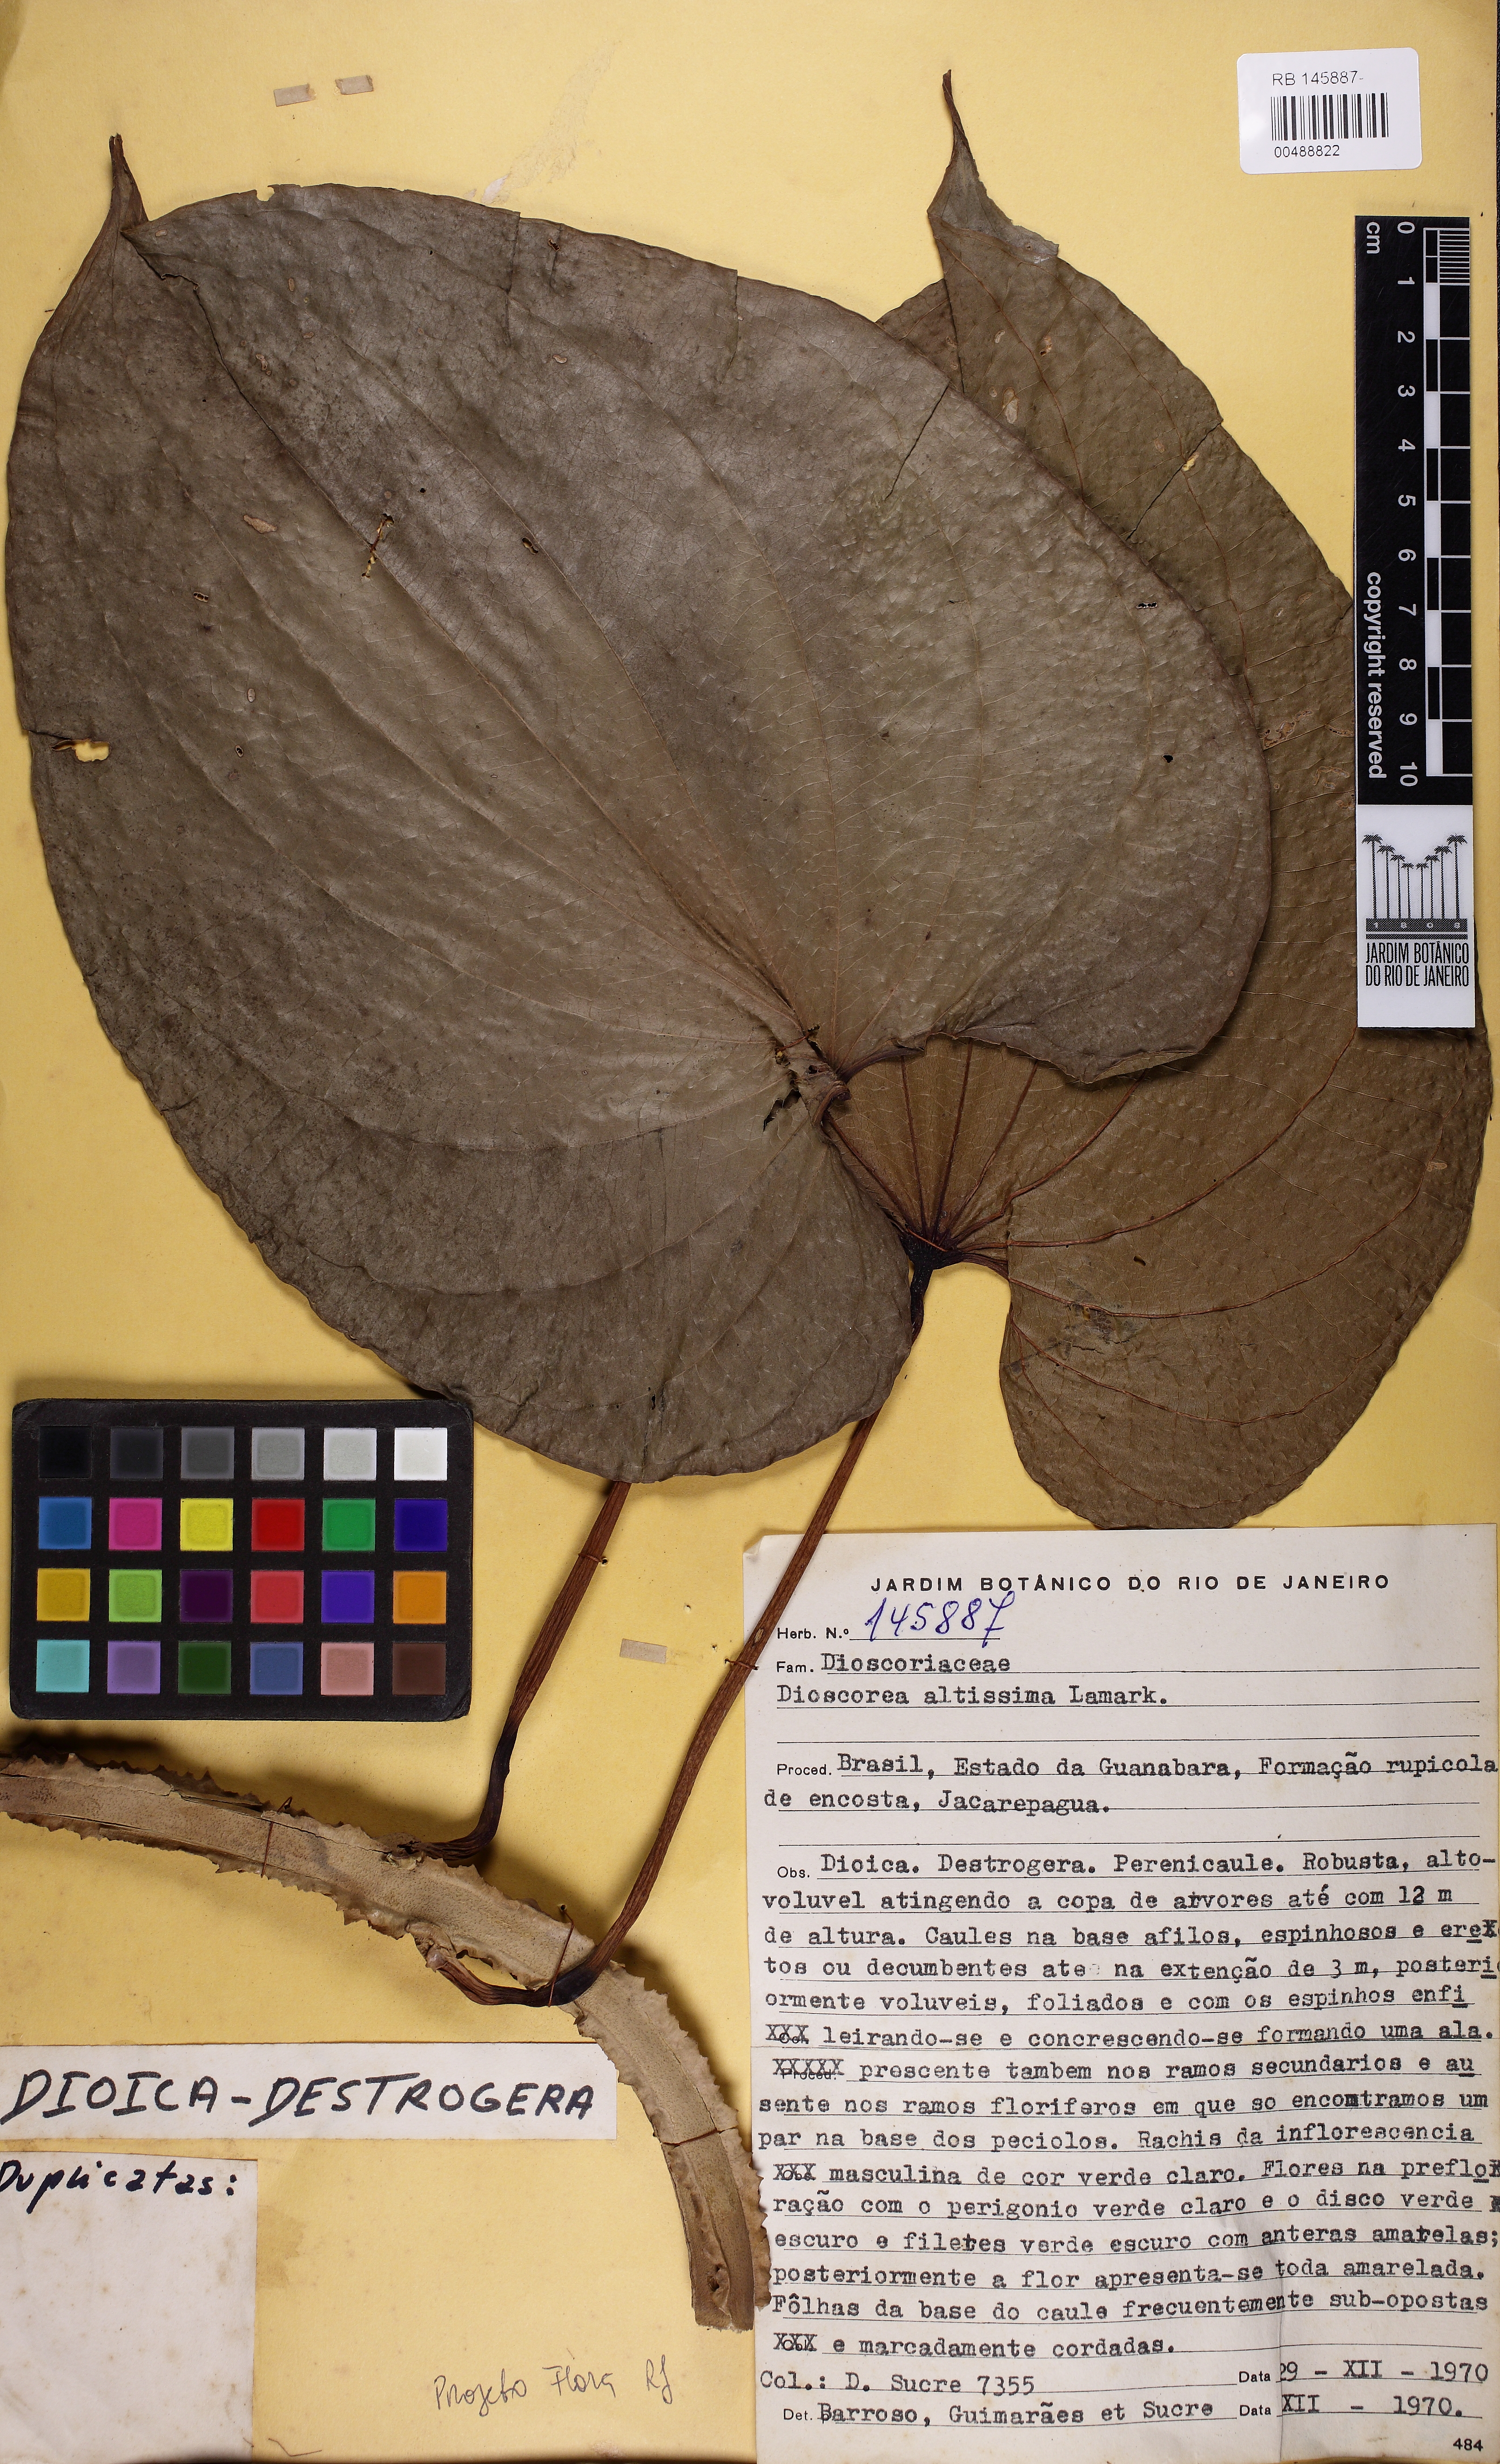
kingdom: Plantae
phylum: Tracheophyta
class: Liliopsida
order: Dioscoreales
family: Dioscoreaceae
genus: Dioscorea
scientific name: Dioscorea cayenensis
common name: Attoto yam
